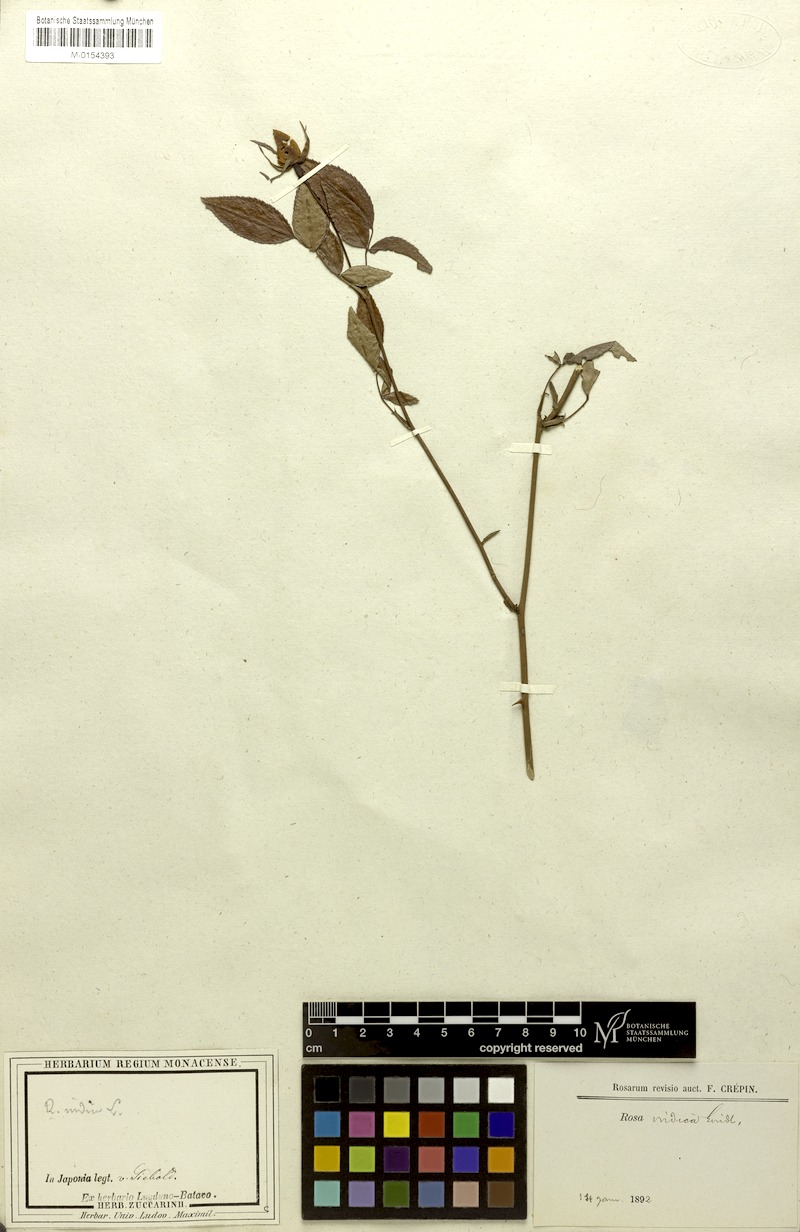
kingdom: Plantae
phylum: Tracheophyta
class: Magnoliopsida
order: Rosales
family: Rosaceae
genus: Rosa
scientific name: Rosa indica
